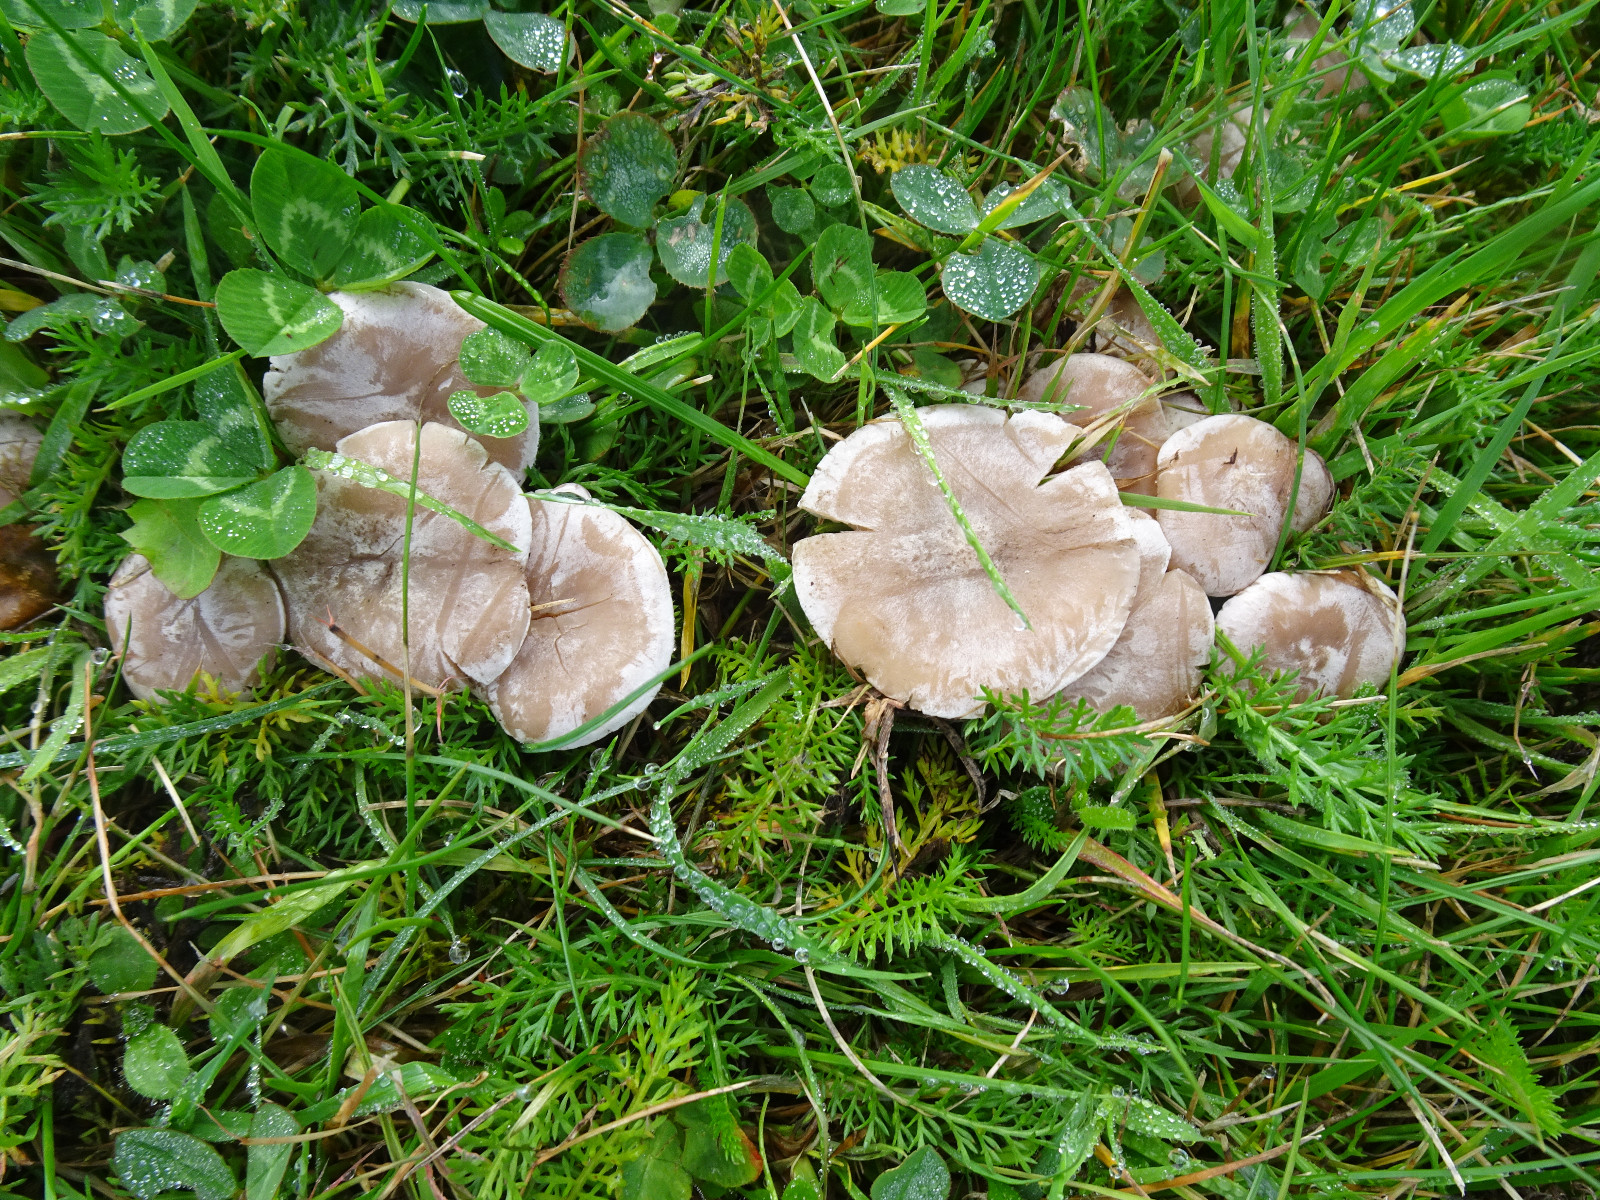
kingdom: Fungi
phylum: Basidiomycota
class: Agaricomycetes
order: Agaricales
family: Tricholomataceae
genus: Clitocybe
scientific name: Clitocybe rivulosa
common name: eng-tragthat
